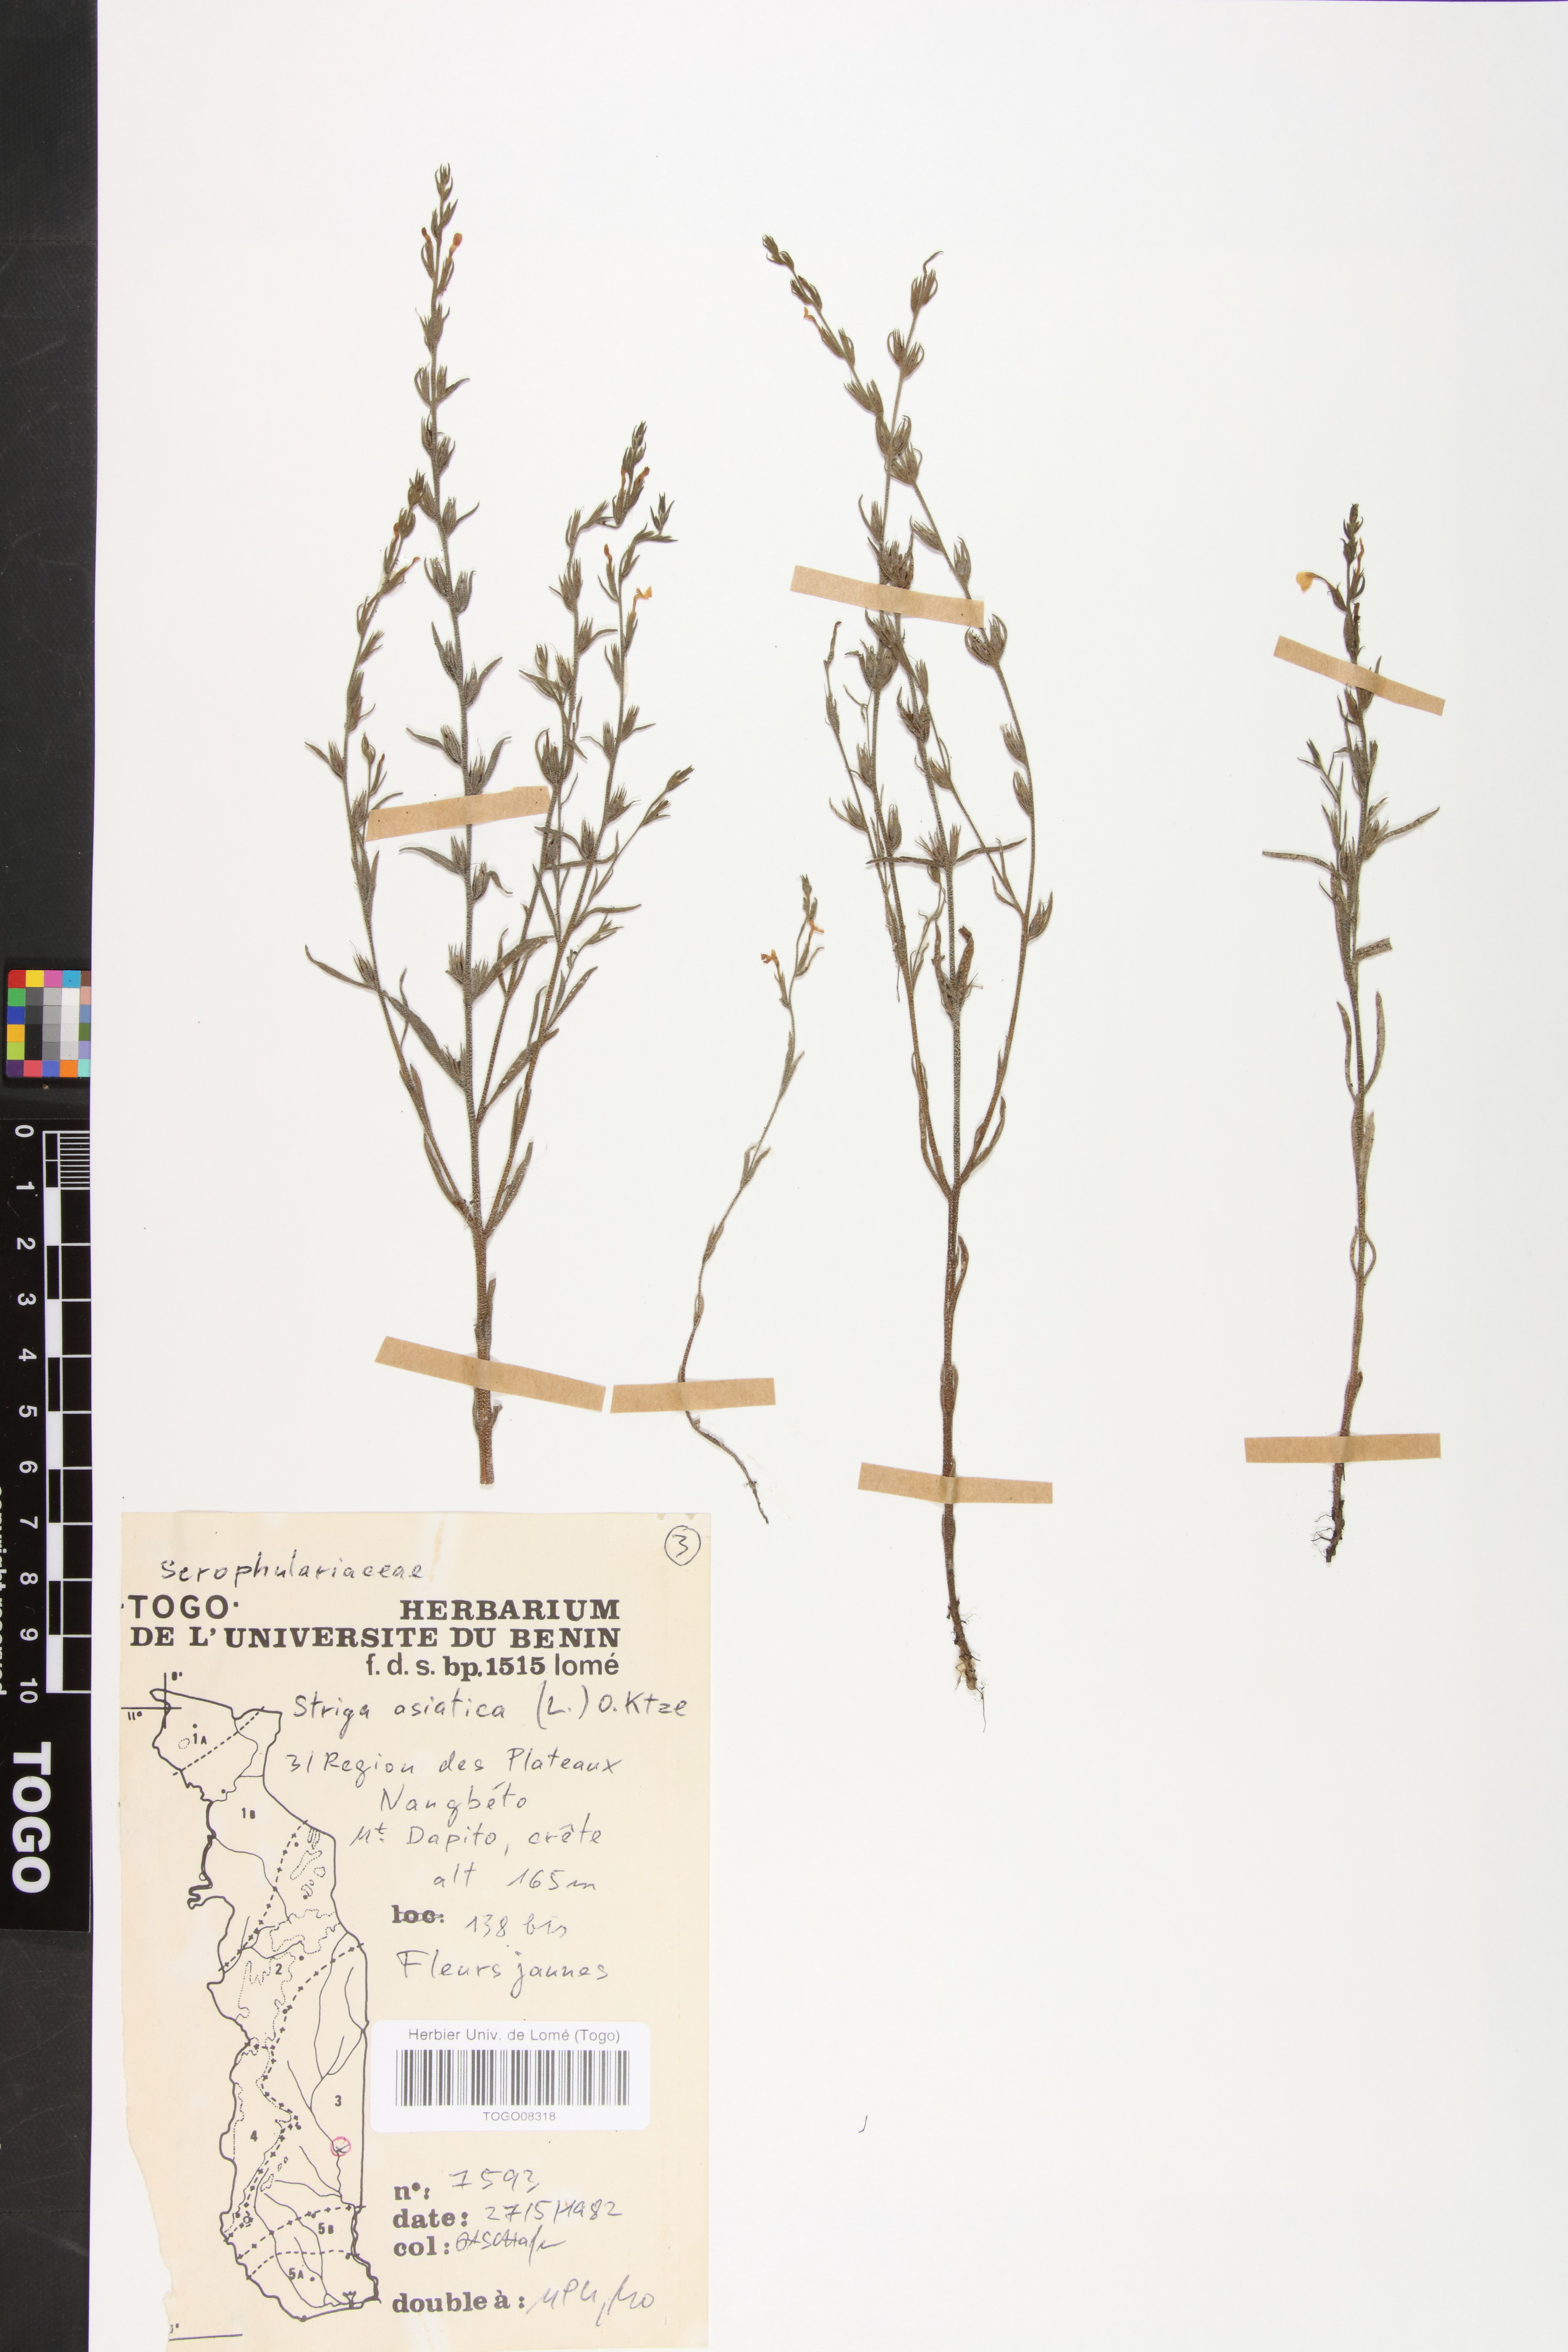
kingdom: Plantae
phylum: Tracheophyta
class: Magnoliopsida
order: Lamiales
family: Orobanchaceae
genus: Striga
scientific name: Striga asiatica
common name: Asiatic witchweed
